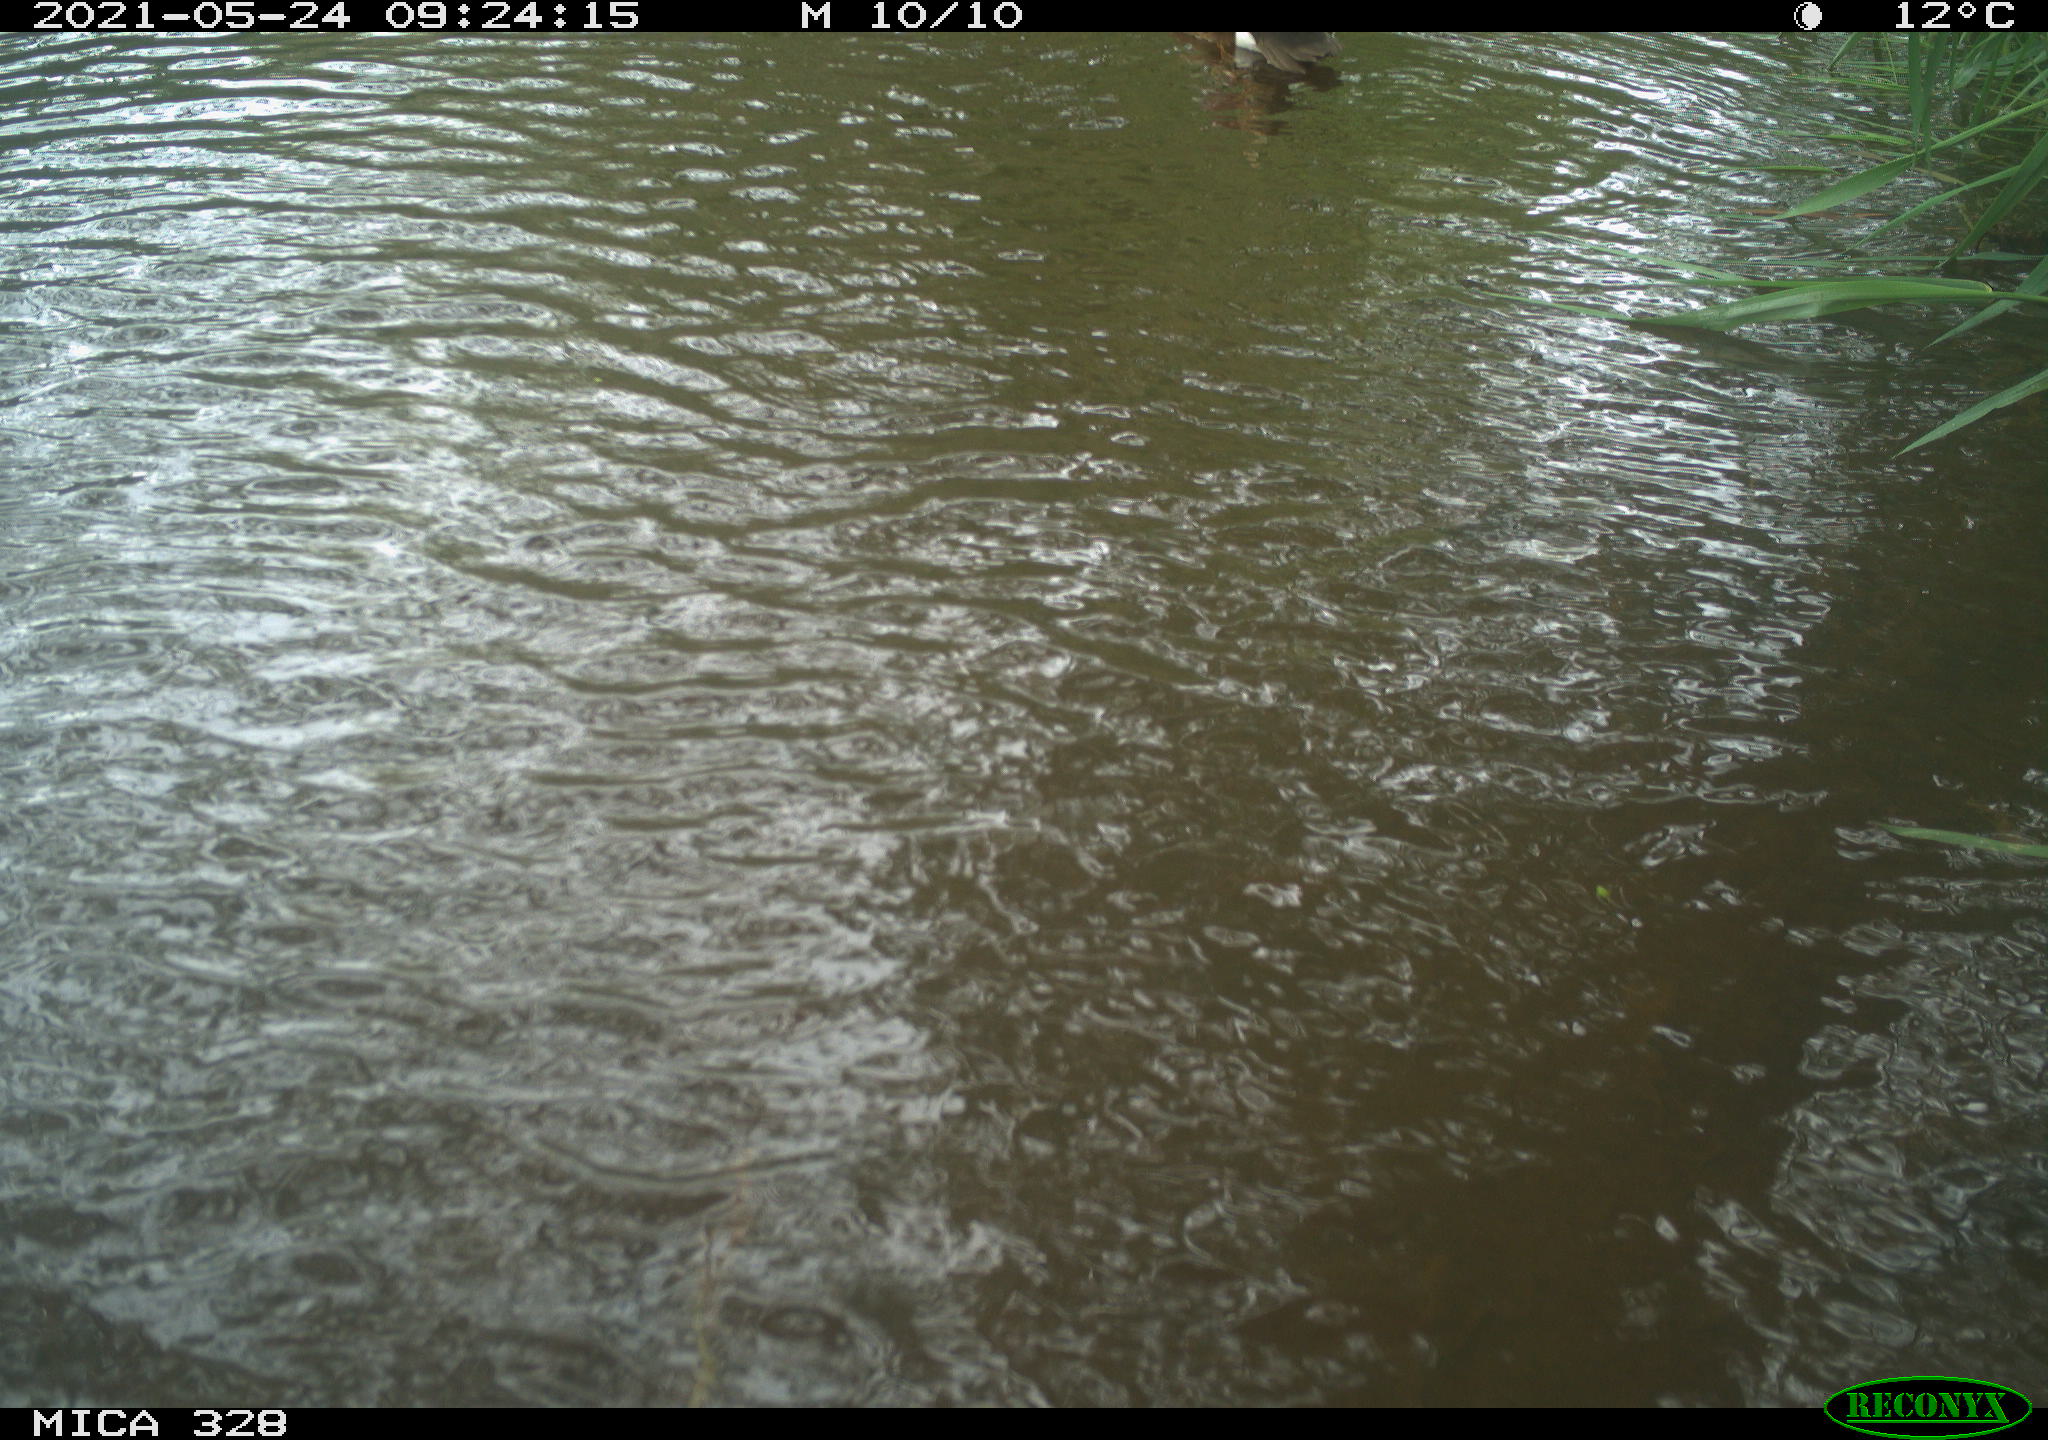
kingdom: Animalia
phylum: Chordata
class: Aves
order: Anseriformes
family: Anatidae
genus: Aix
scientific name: Aix galericulata
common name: Mandarin duck
